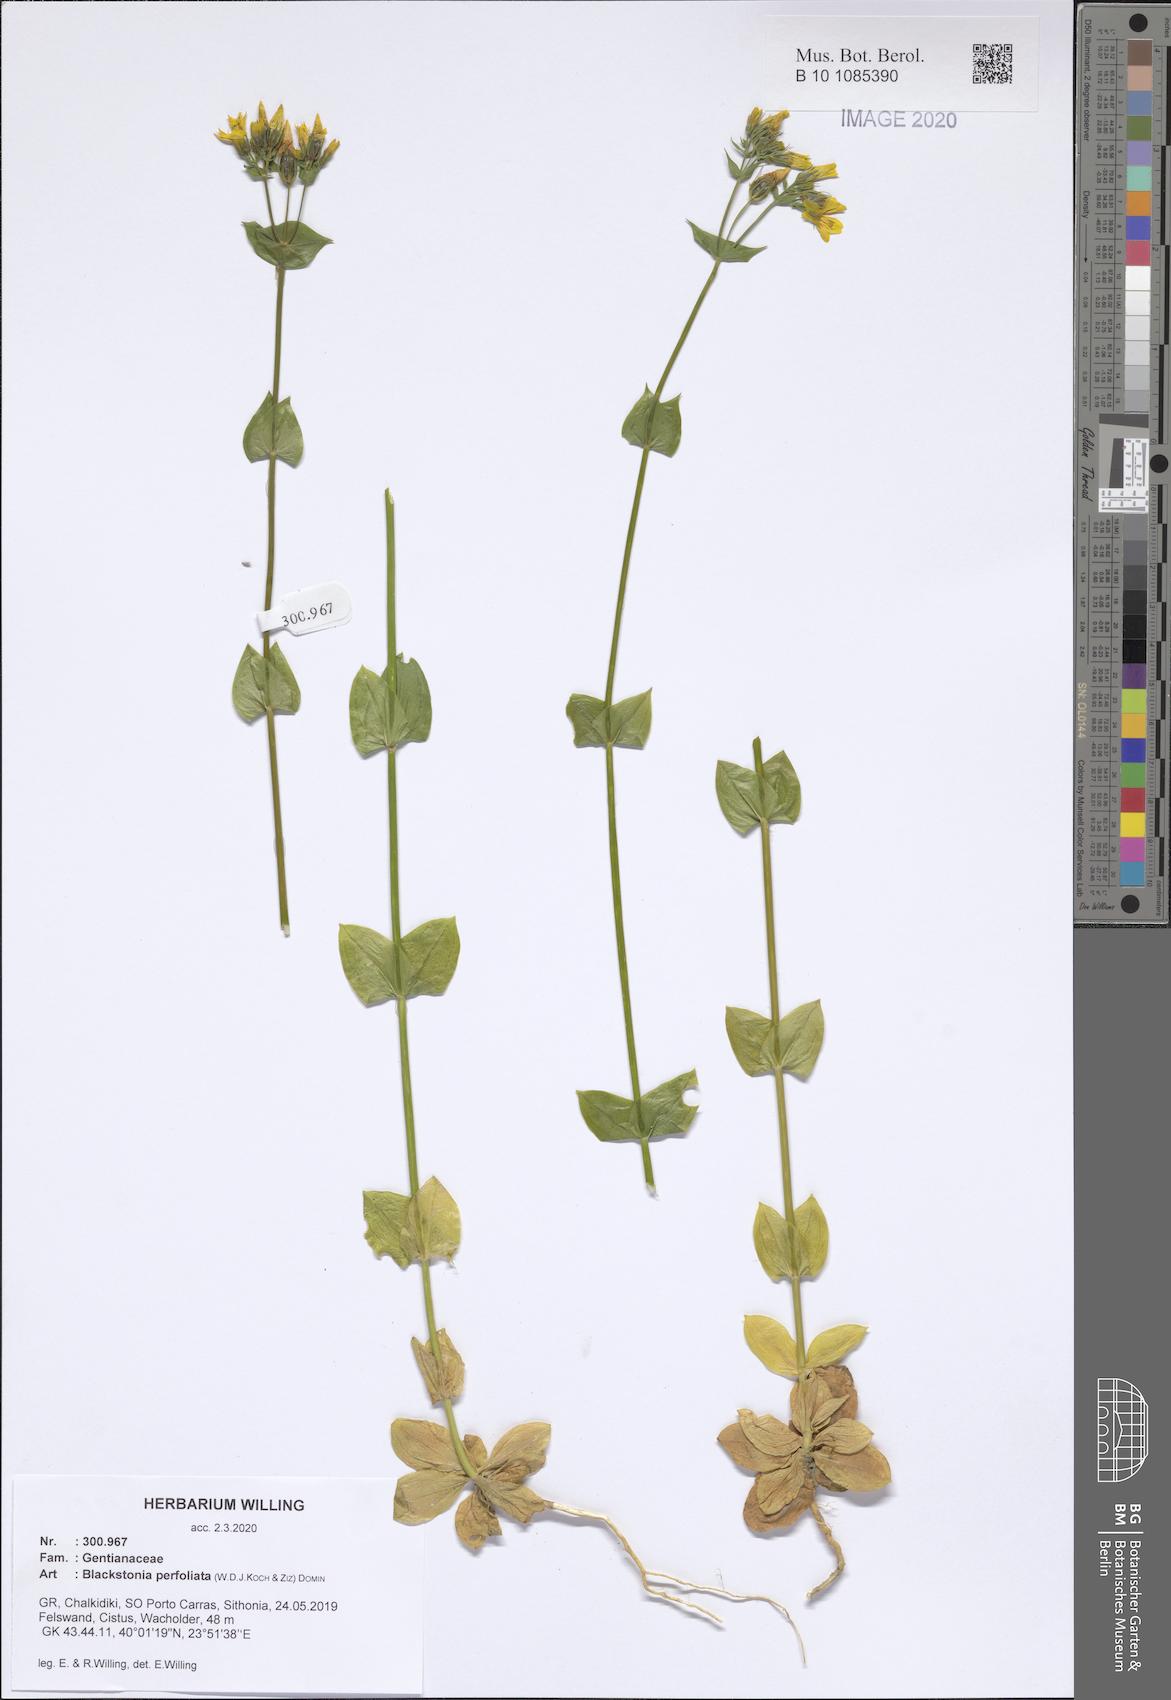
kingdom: Plantae
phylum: Tracheophyta
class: Magnoliopsida
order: Gentianales
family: Gentianaceae
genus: Blackstonia
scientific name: Blackstonia perfoliata
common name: Yellow-wort
